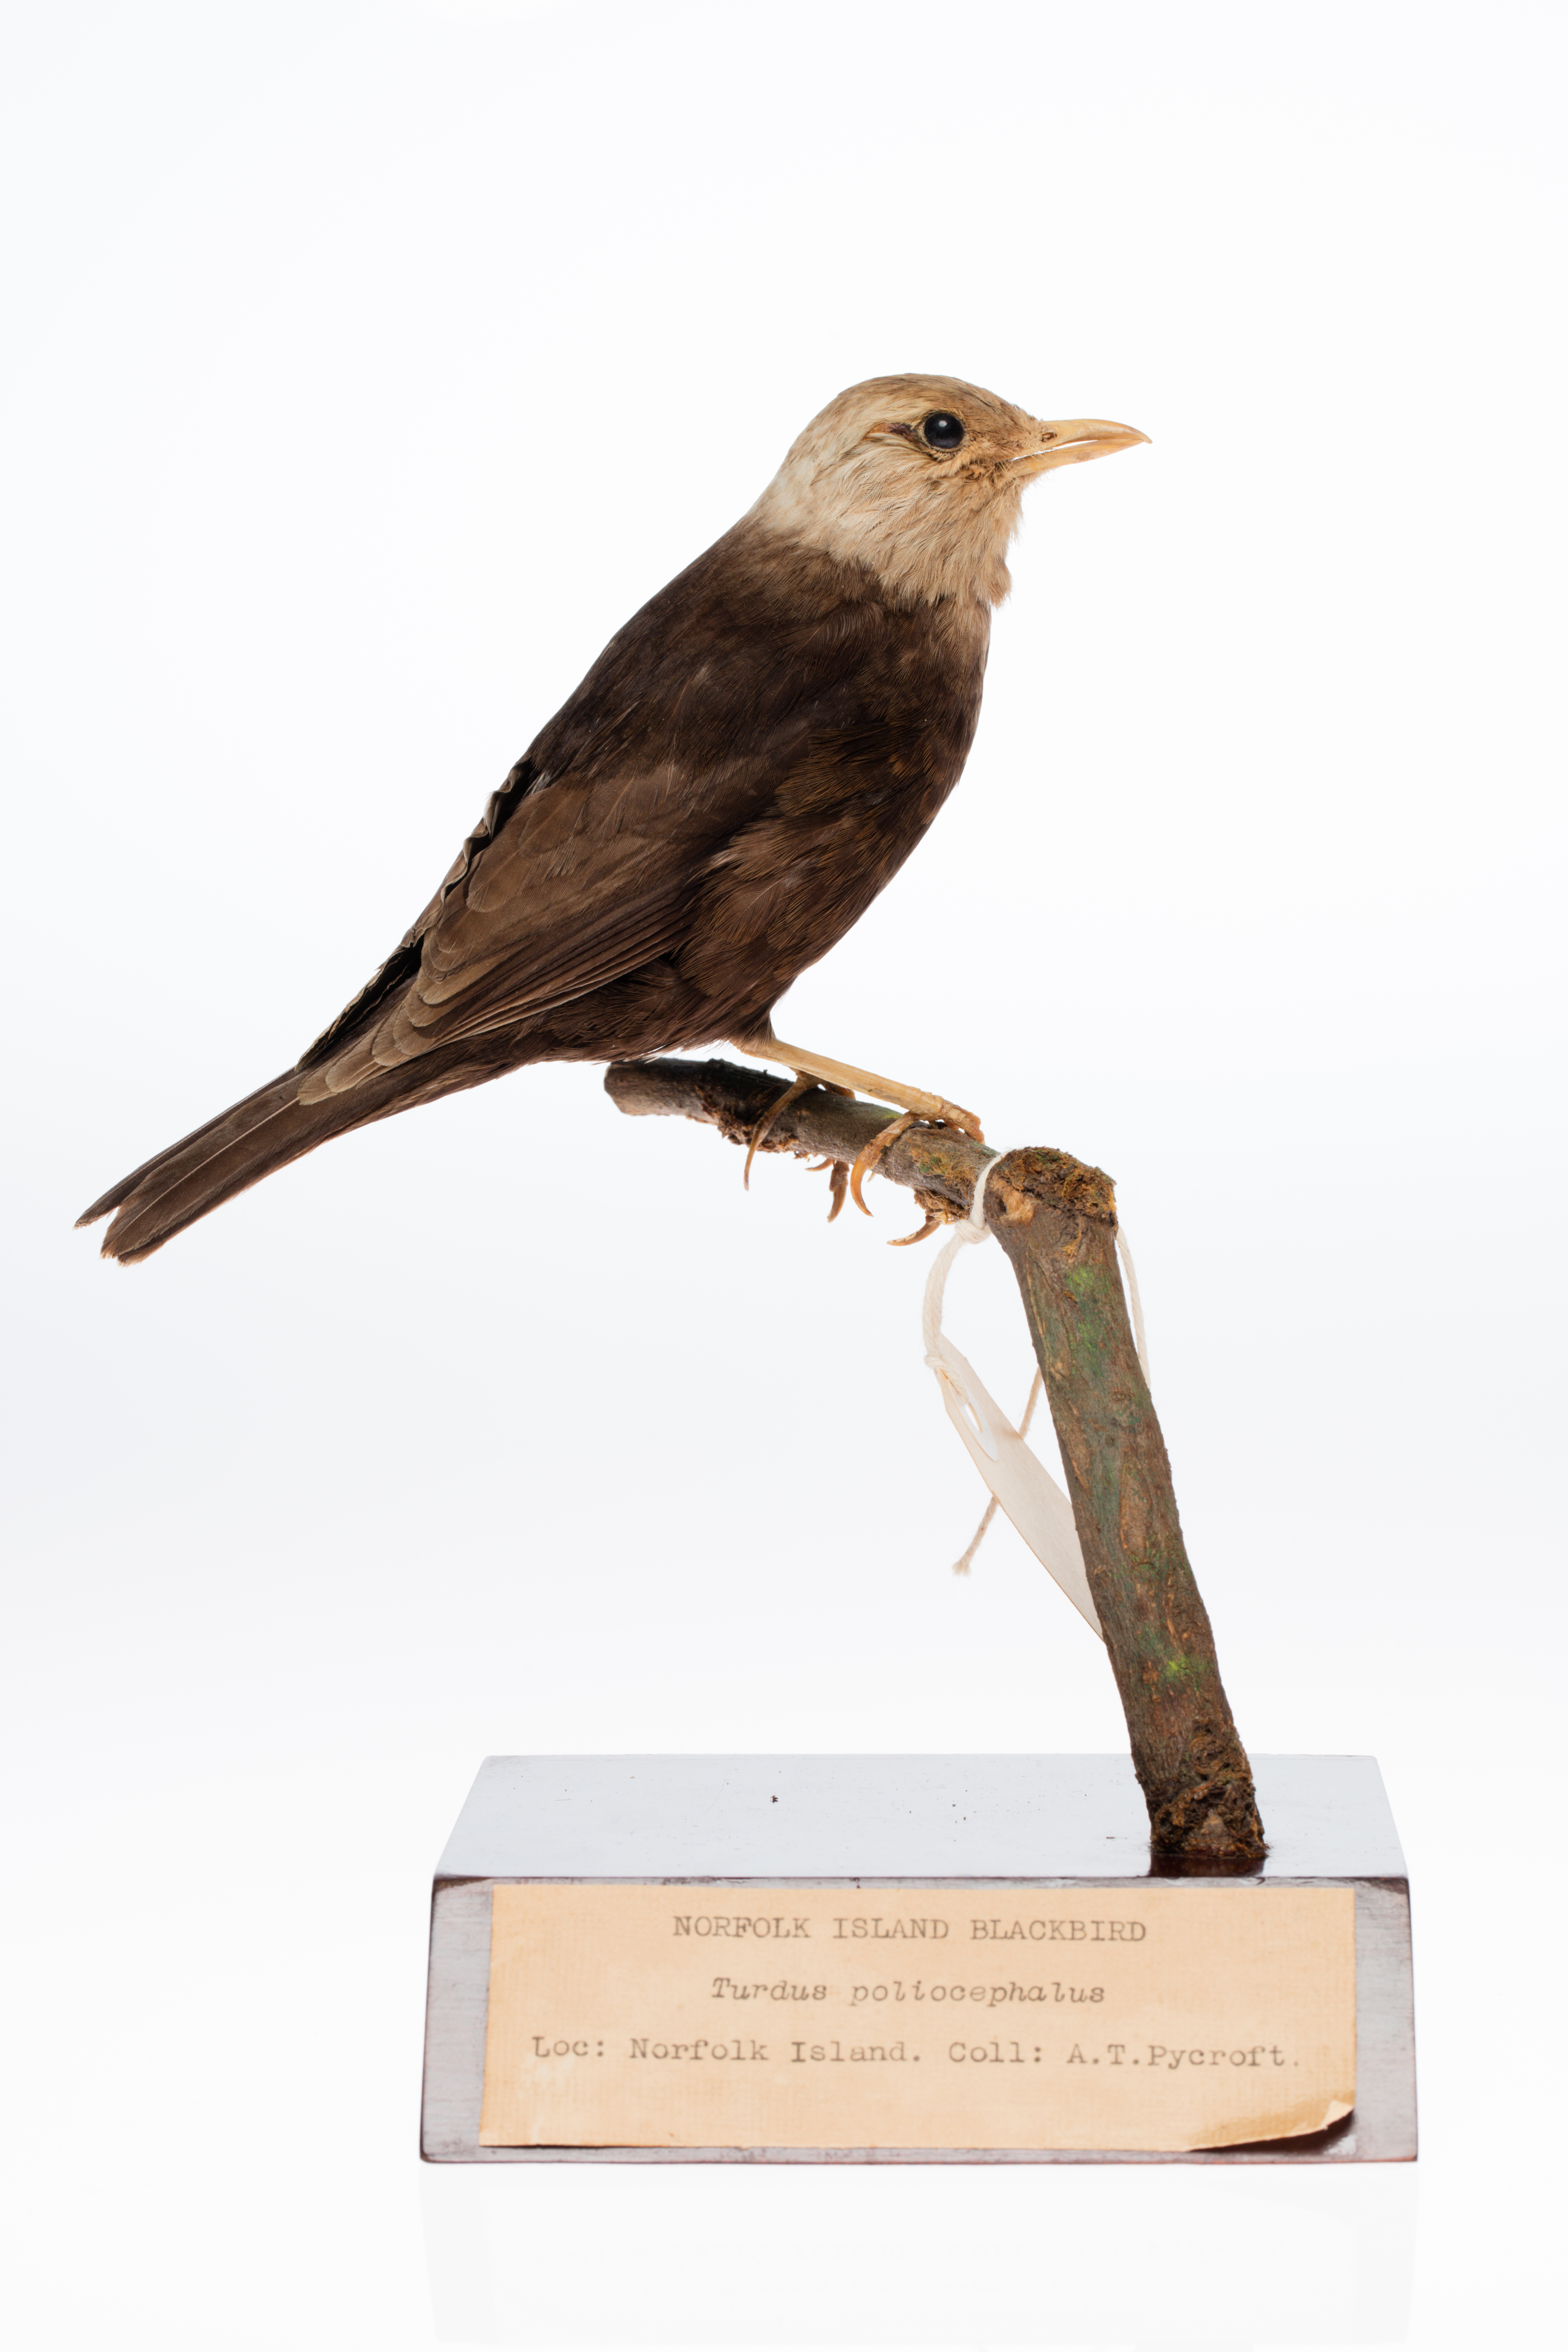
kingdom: Animalia
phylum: Chordata
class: Aves
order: Passeriformes
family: Turdidae
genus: Turdus
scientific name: Turdus poliocephalus
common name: Island thrush
